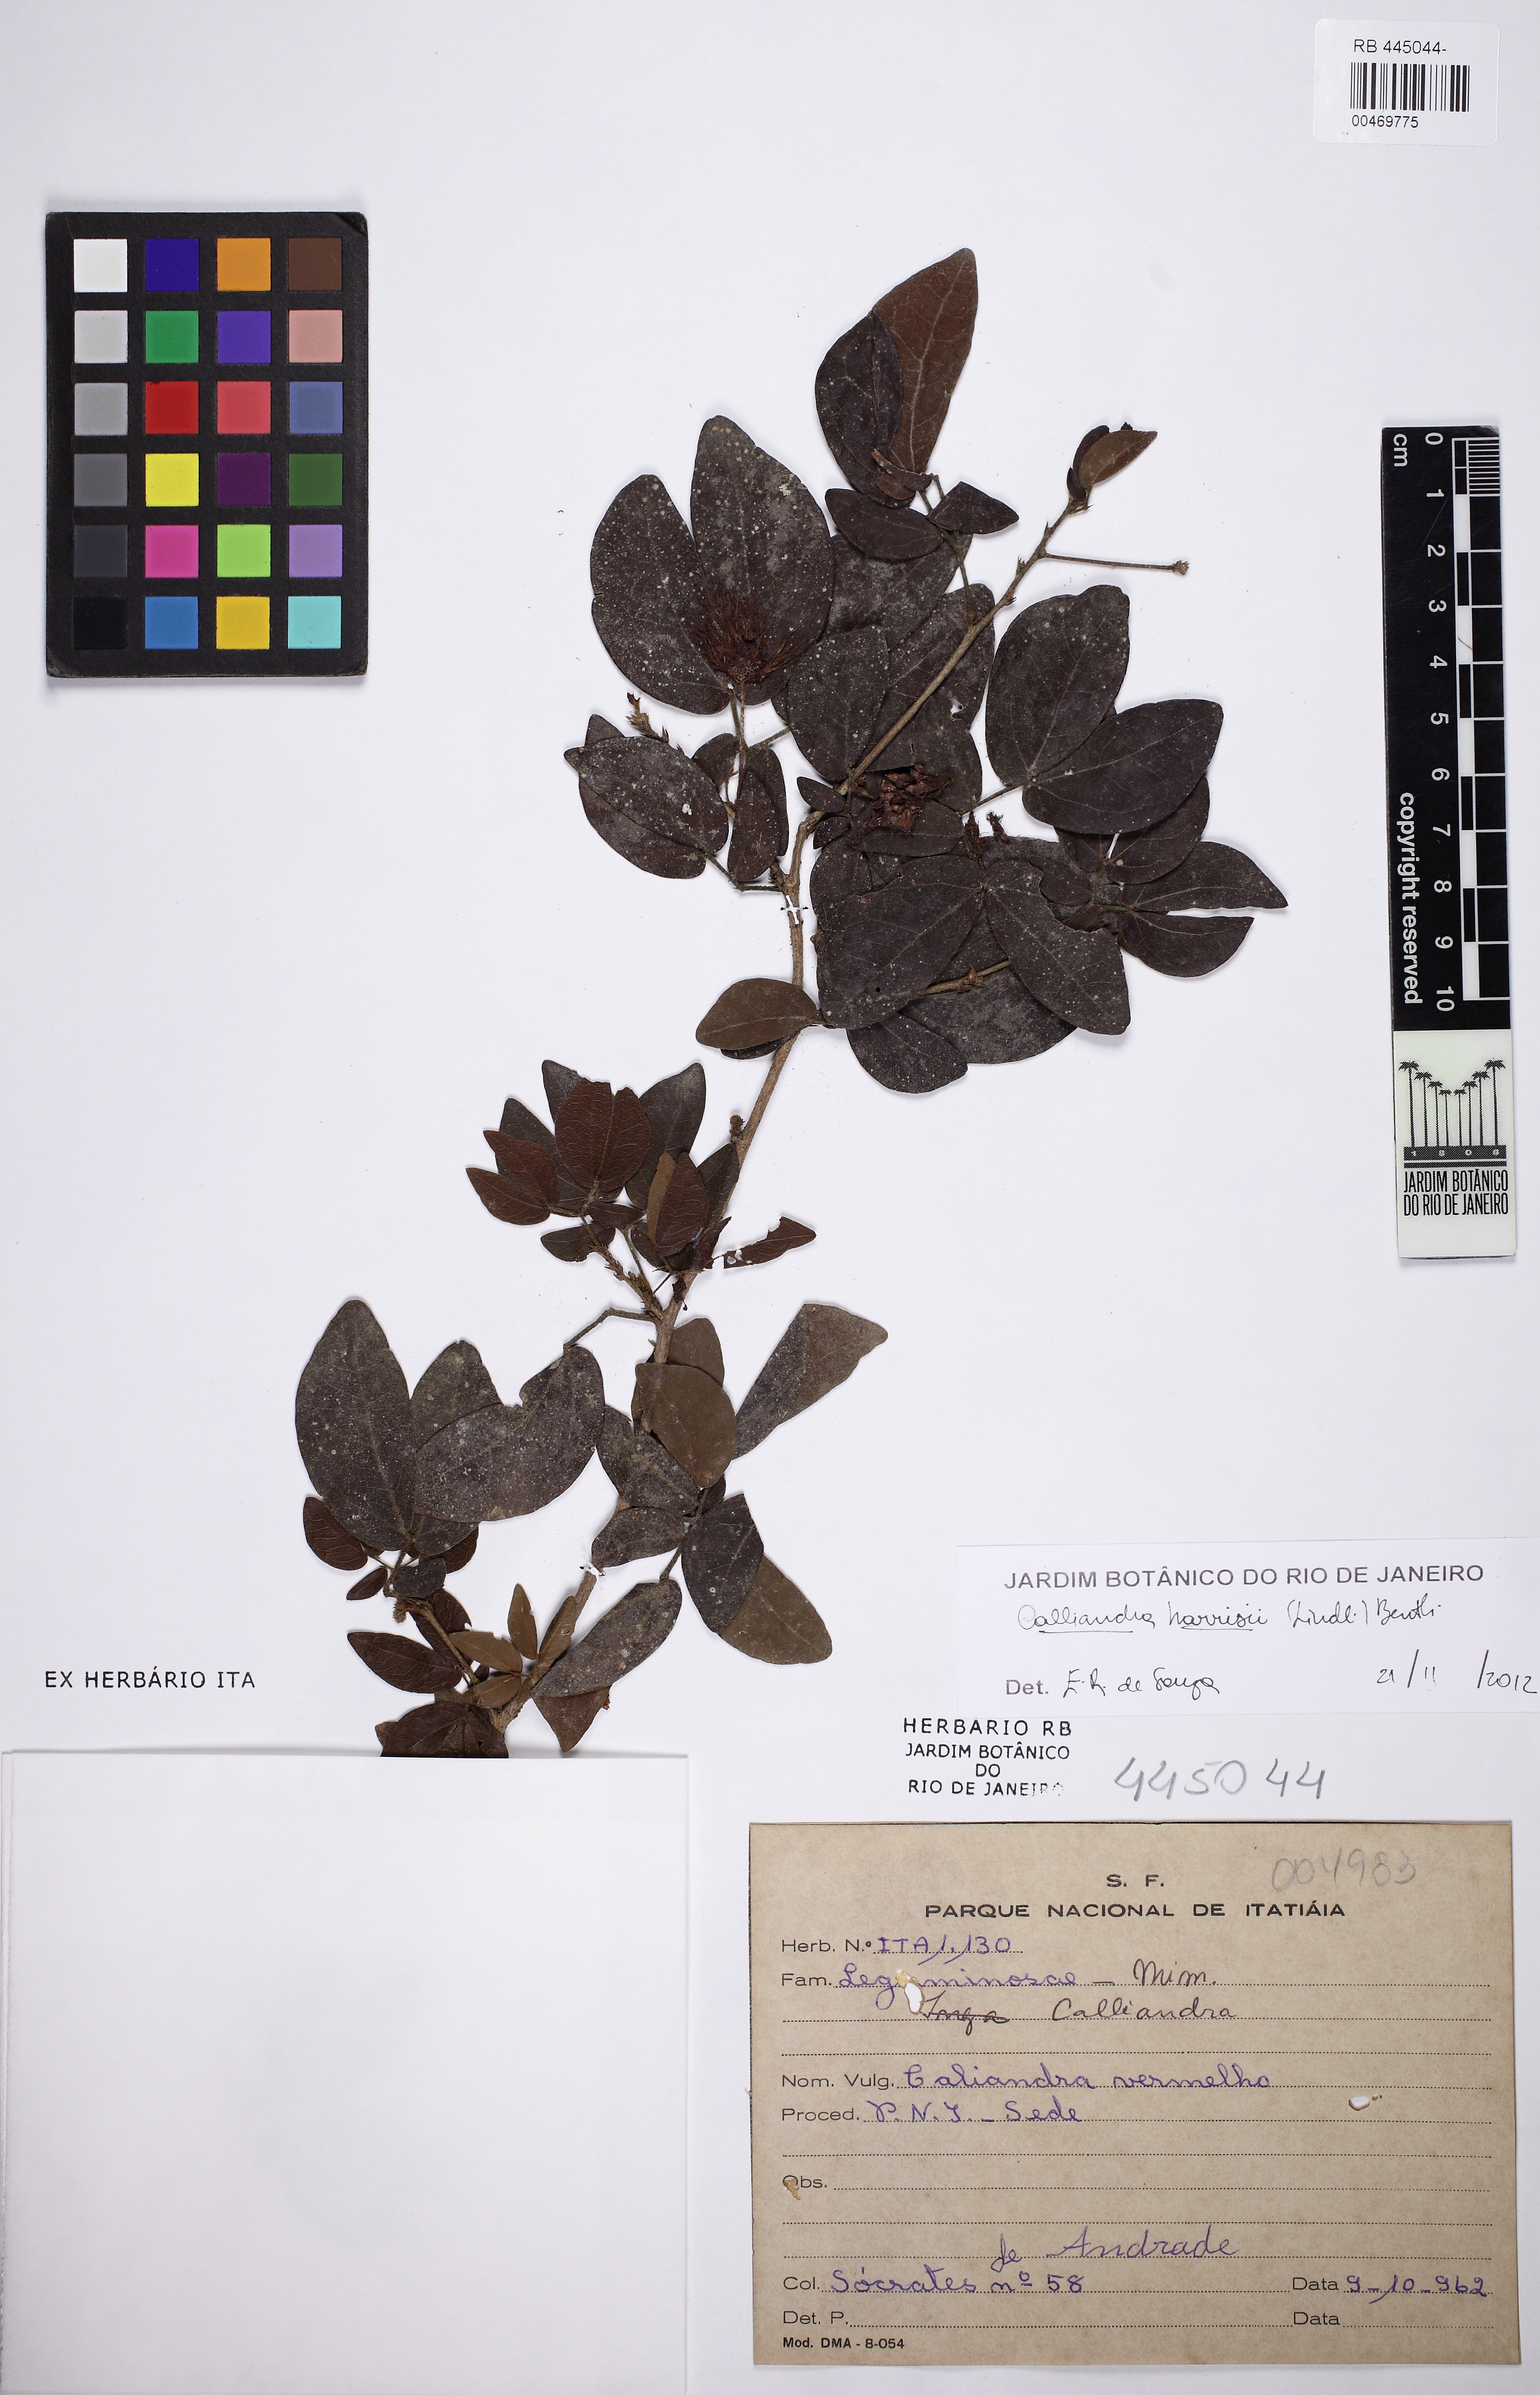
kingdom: Plantae
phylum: Tracheophyta
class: Magnoliopsida
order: Fabales
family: Fabaceae
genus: Calliandra
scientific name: Calliandra harrisii
